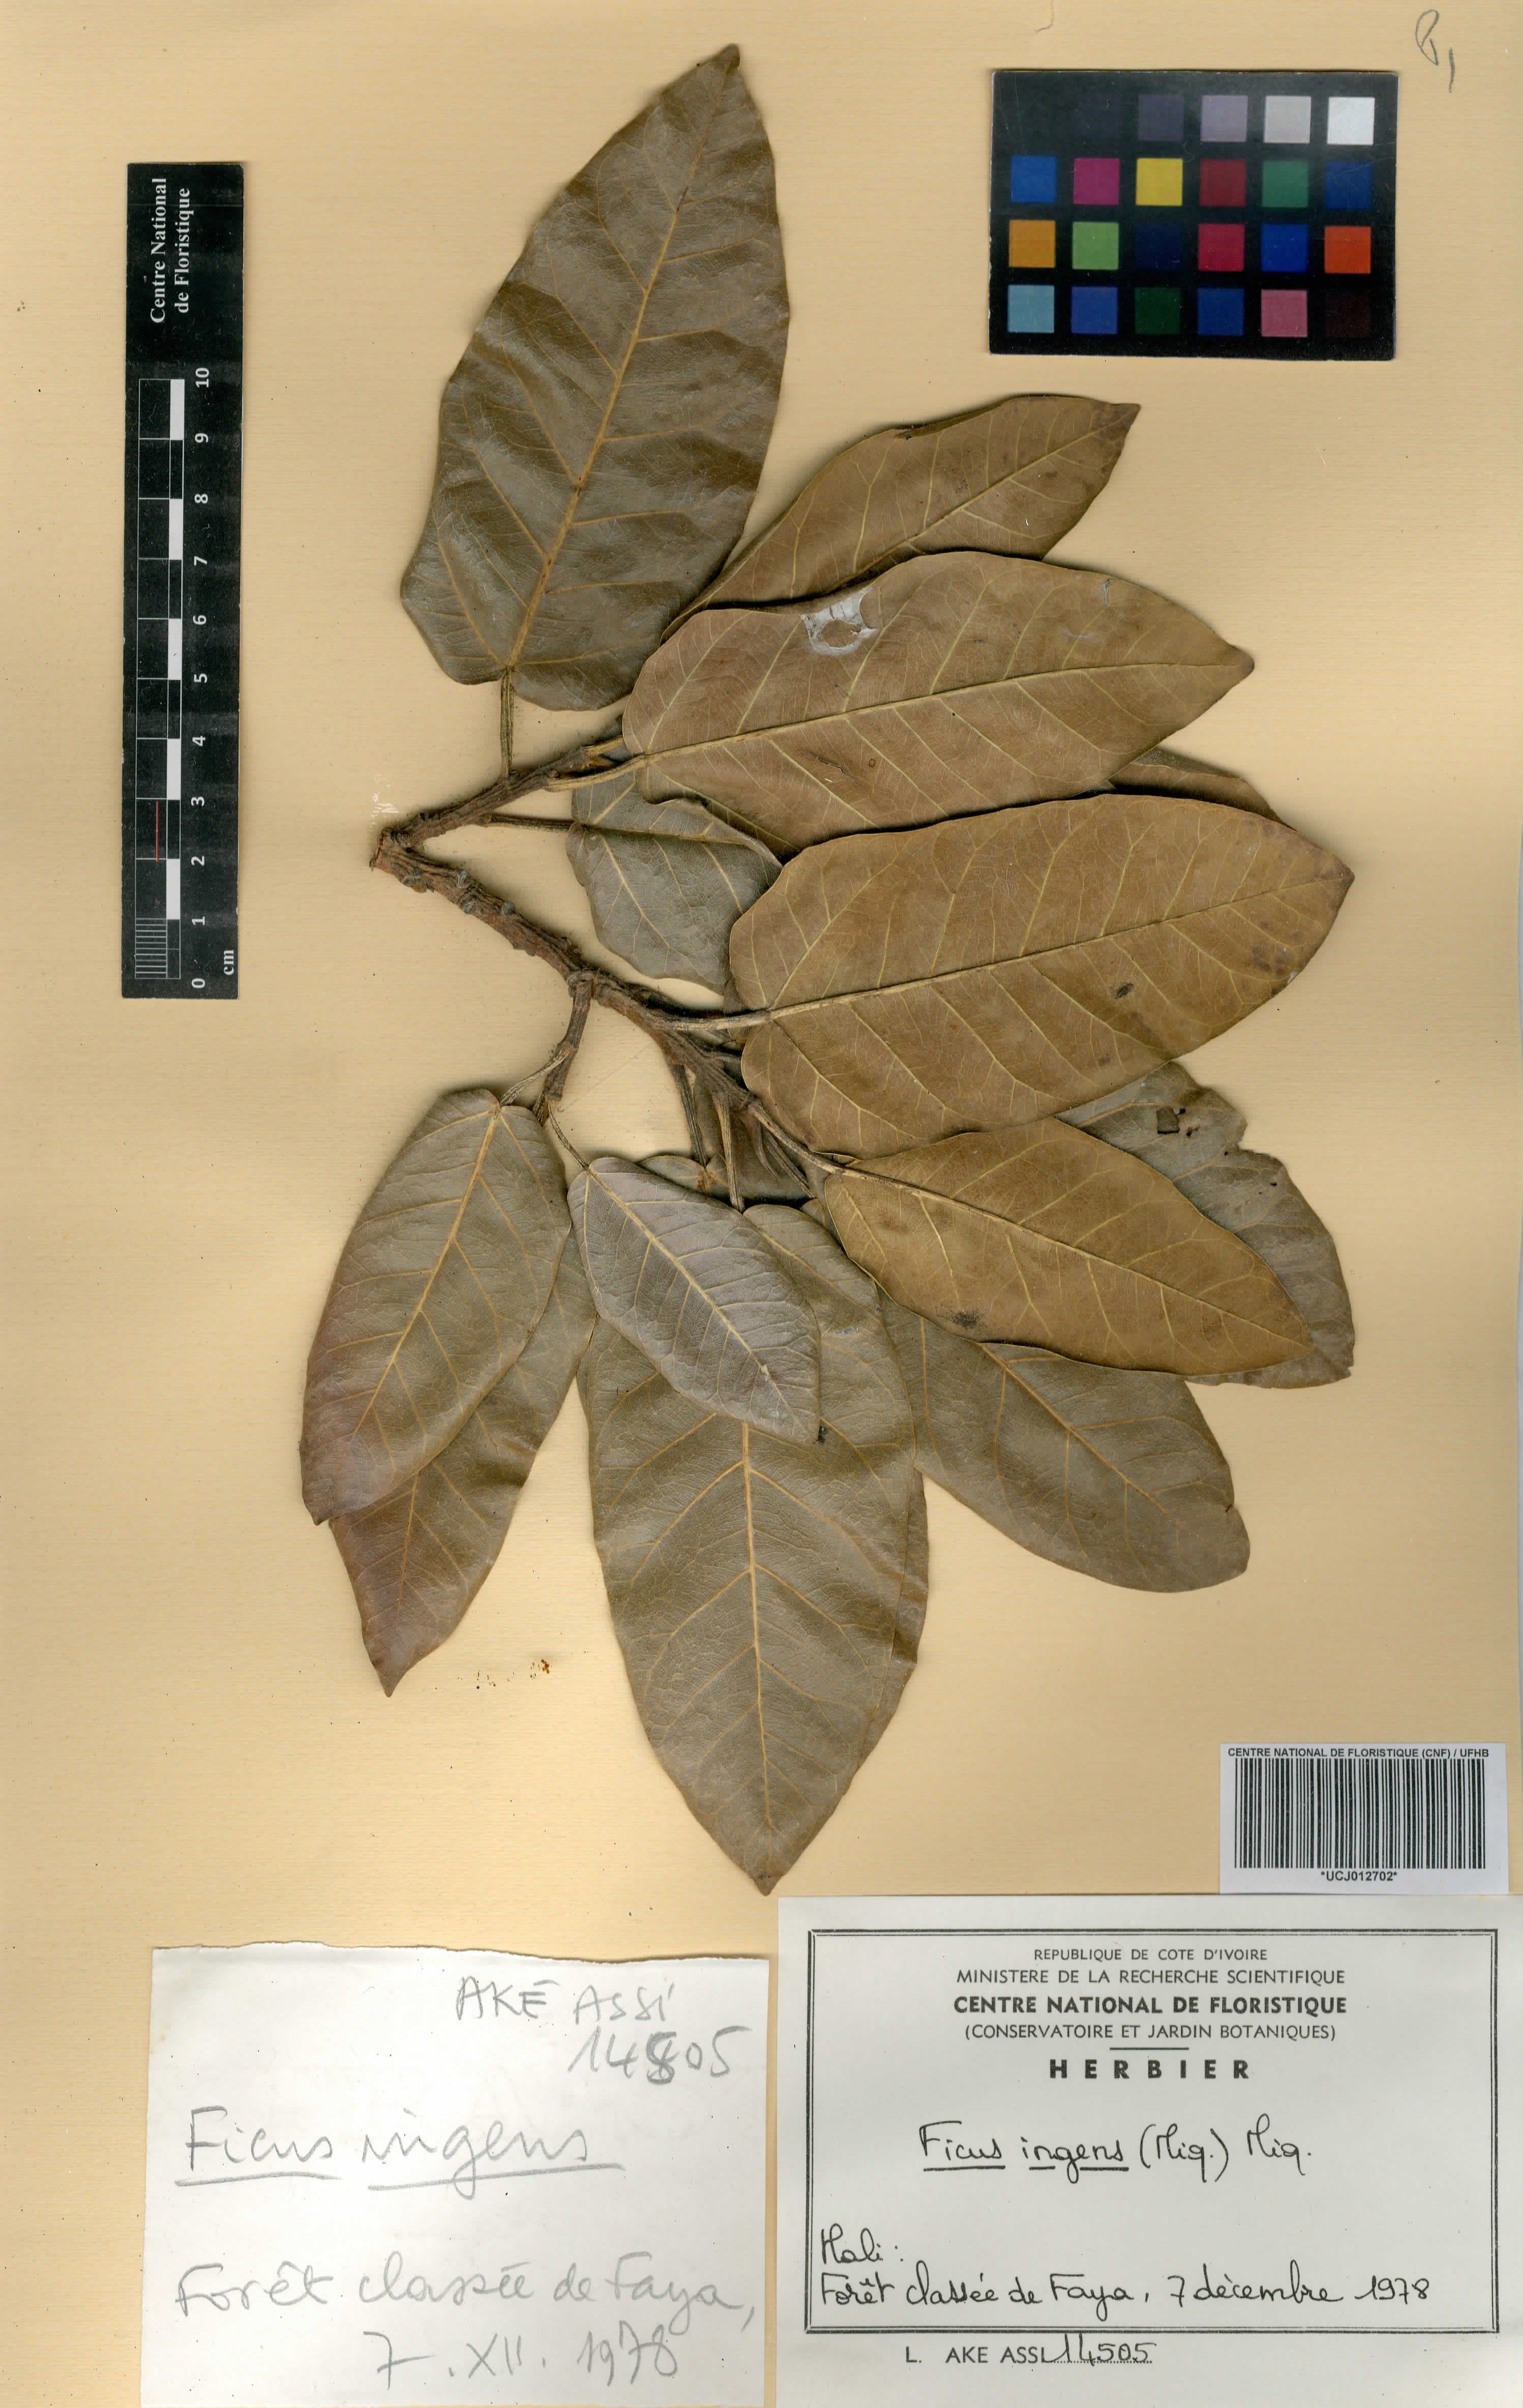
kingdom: Plantae
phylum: Tracheophyta
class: Magnoliopsida
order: Rosales
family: Moraceae
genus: Ficus
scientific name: Ficus ingens
